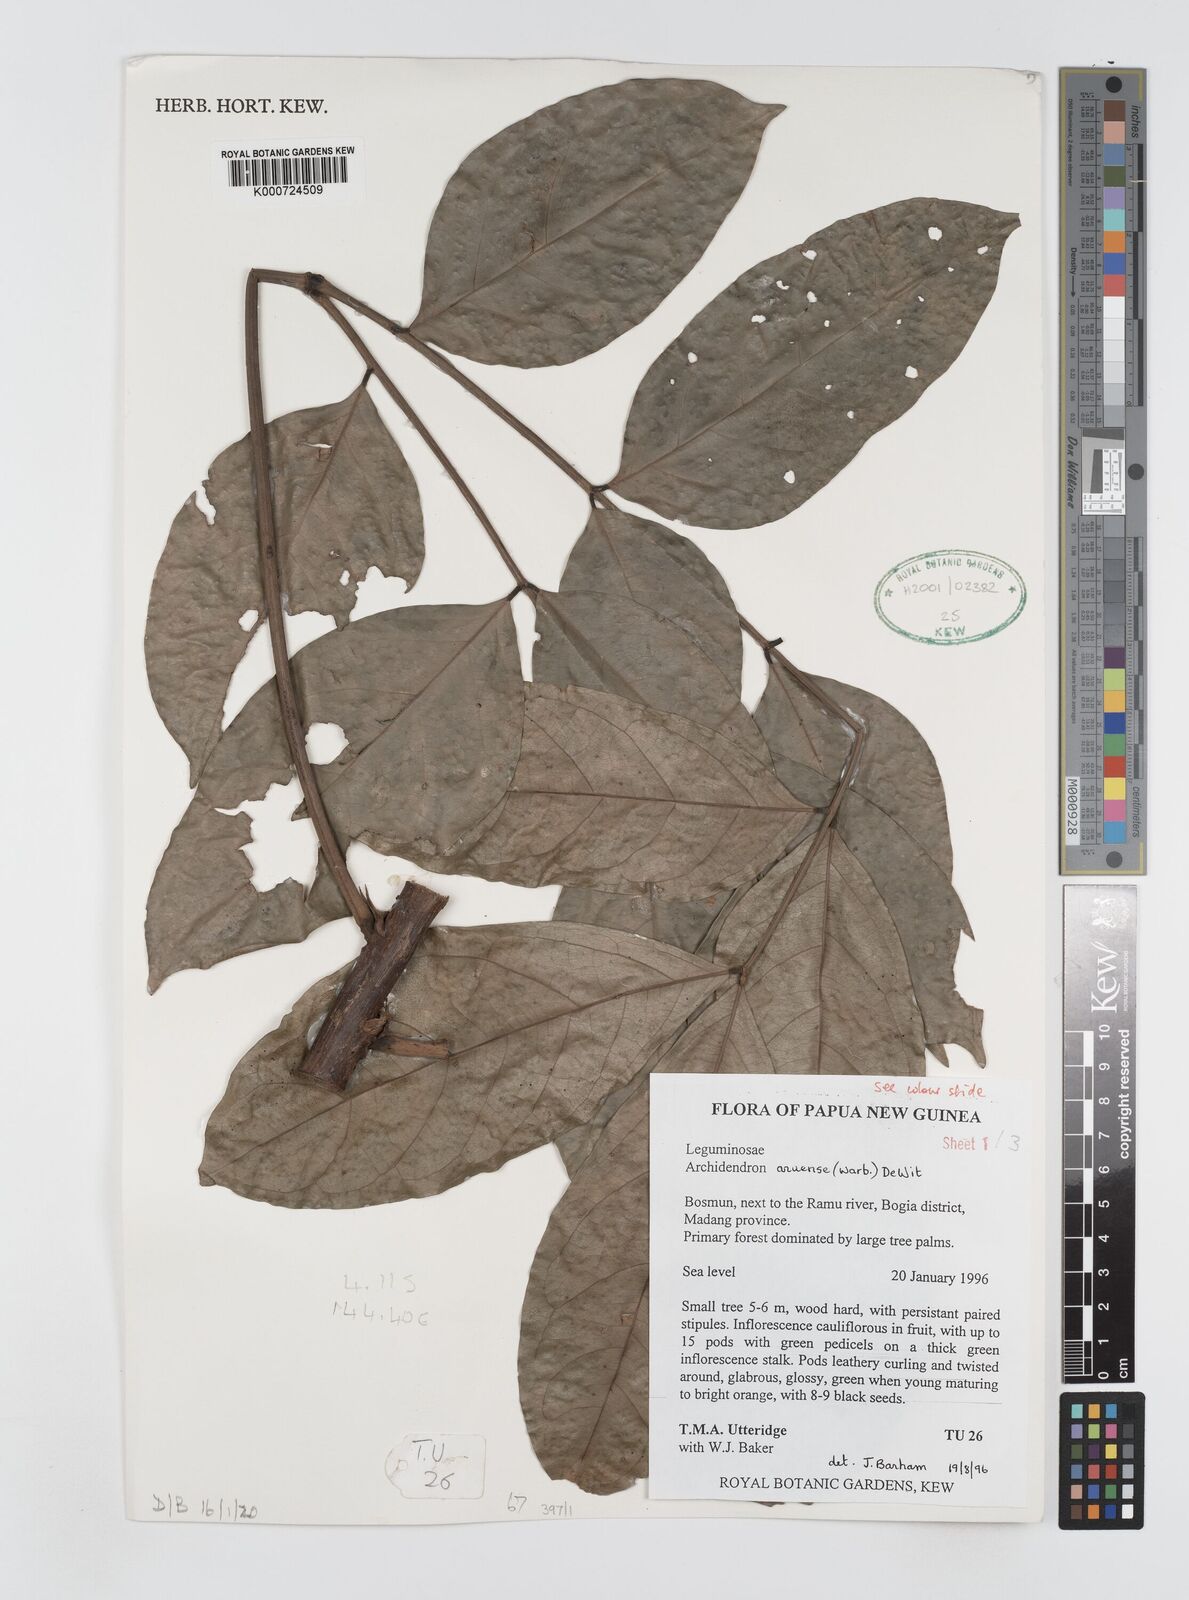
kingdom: Plantae
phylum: Tracheophyta
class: Magnoliopsida
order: Fabales
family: Fabaceae
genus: Archidendron
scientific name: Archidendron aruense
